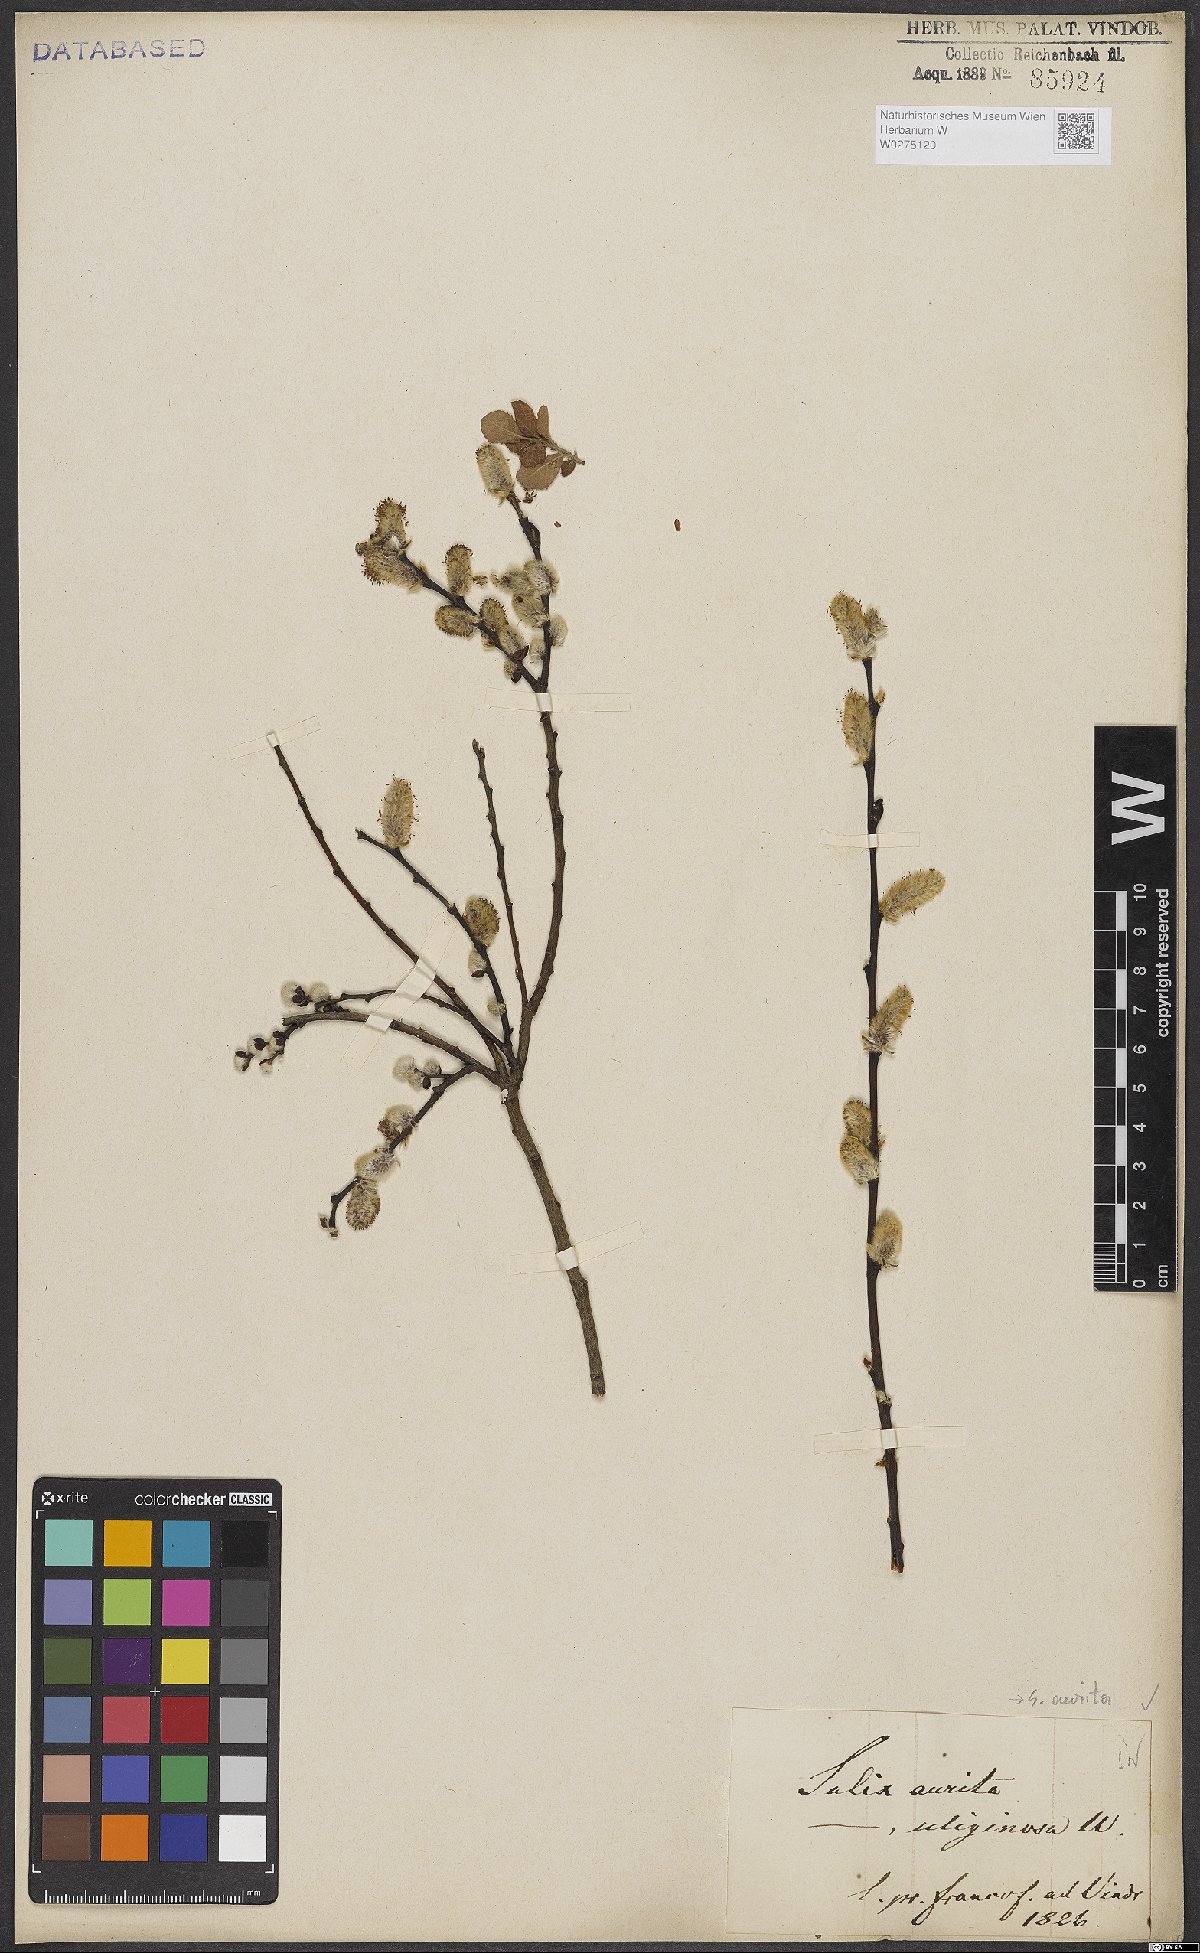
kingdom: Plantae
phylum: Tracheophyta
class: Magnoliopsida
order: Malpighiales
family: Salicaceae
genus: Salix
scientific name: Salix aurita
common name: Eared willow
